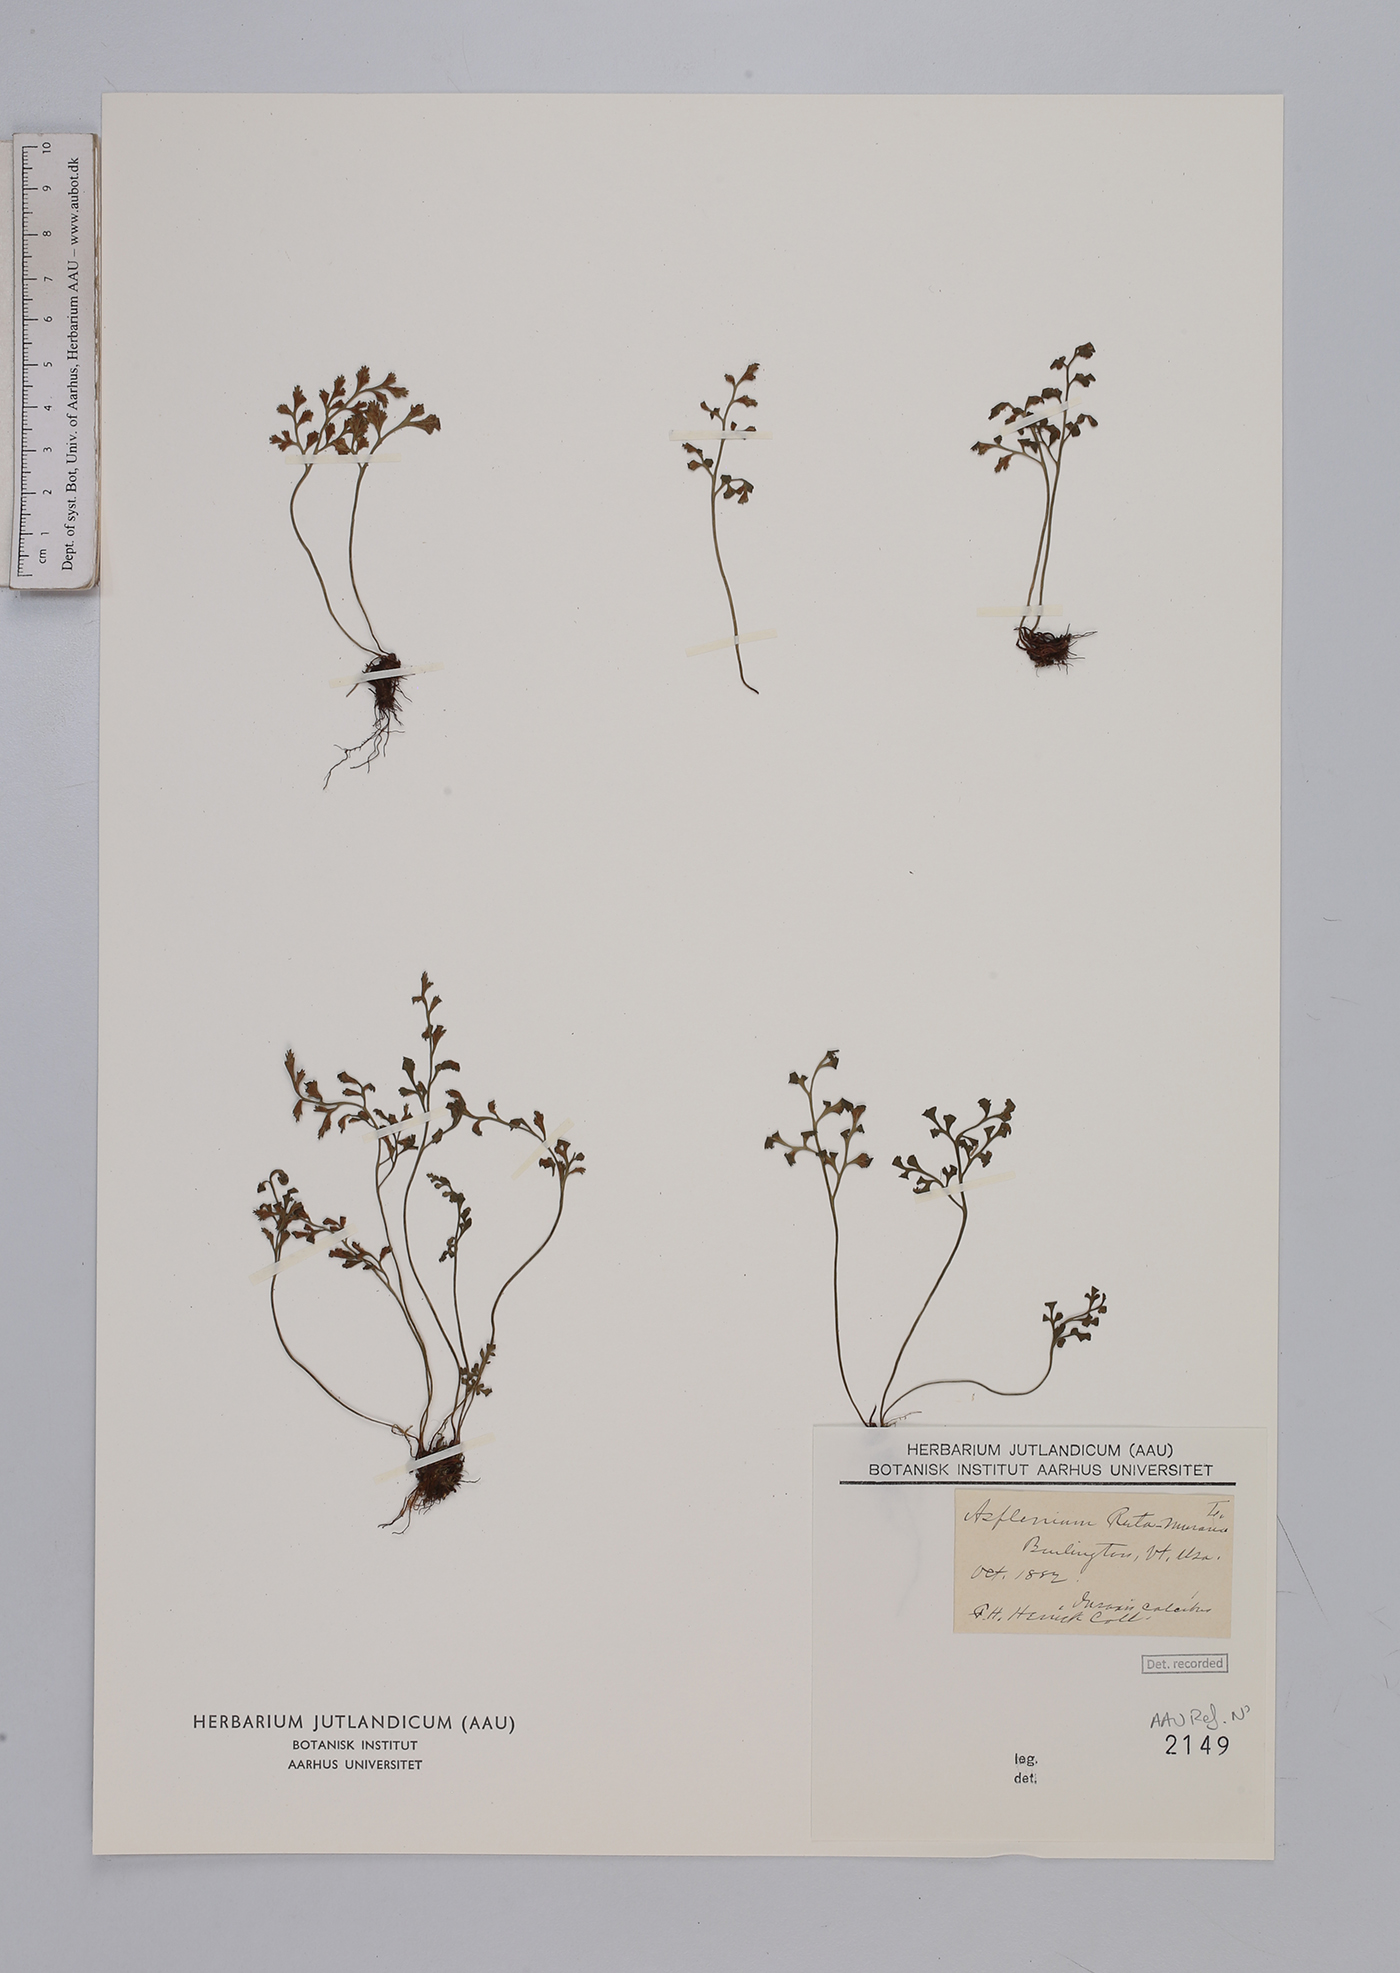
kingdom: Plantae
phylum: Tracheophyta
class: Polypodiopsida
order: Polypodiales
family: Aspleniaceae
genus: Asplenium
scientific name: Asplenium ruta-muraria
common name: Wall-rue
